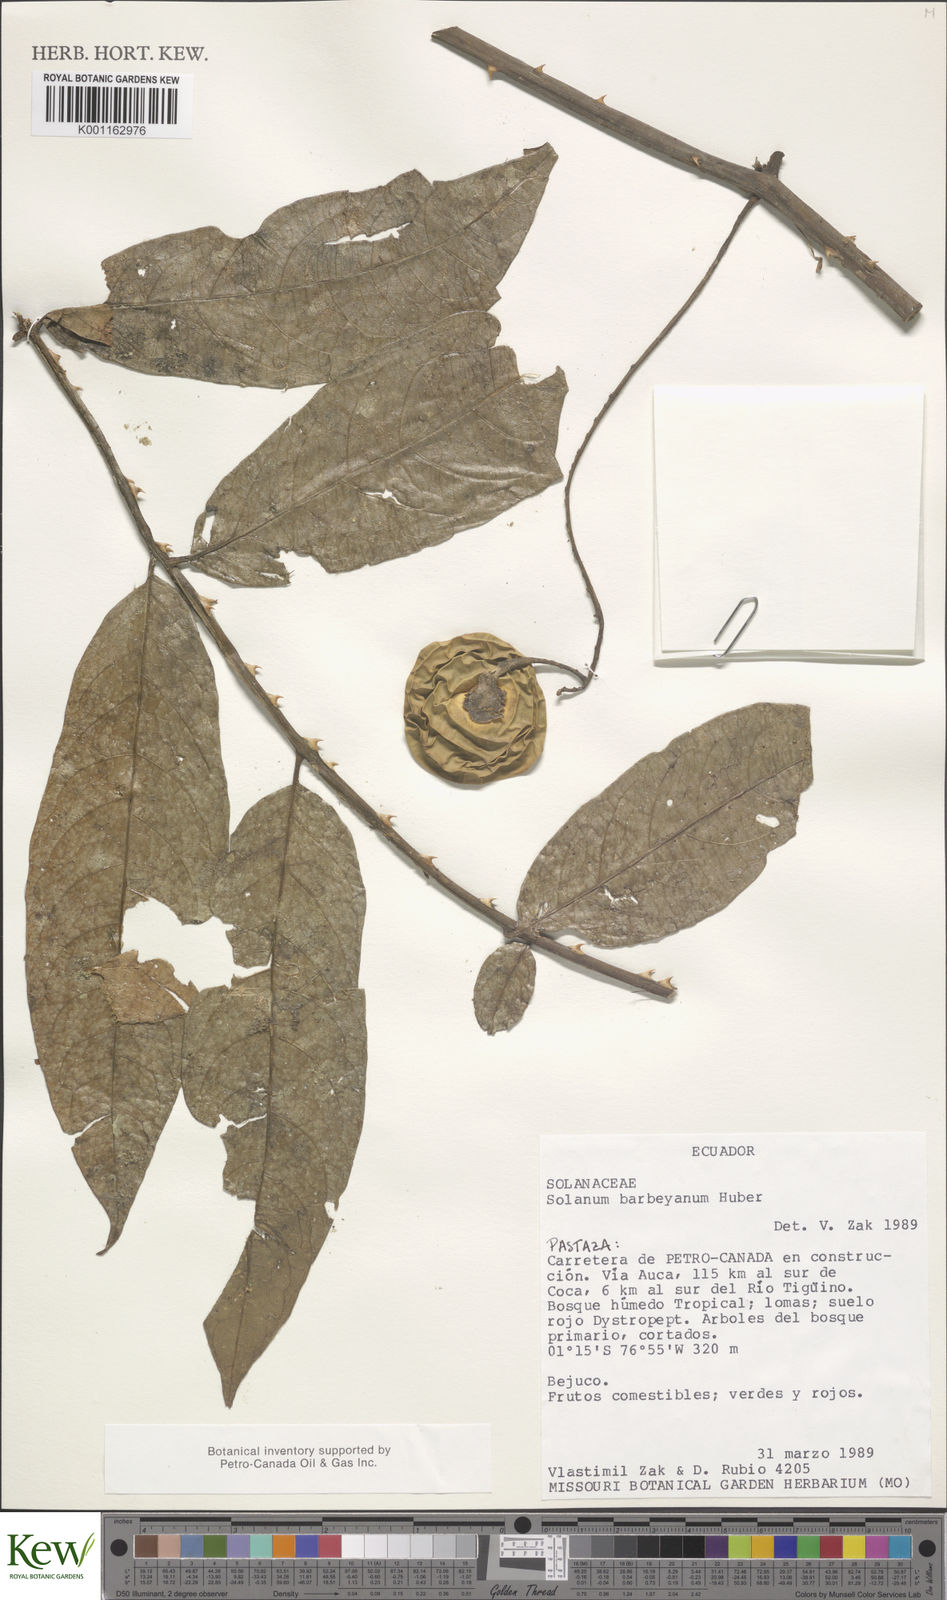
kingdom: Plantae
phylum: Tracheophyta
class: Magnoliopsida
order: Solanales
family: Solanaceae
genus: Solanum
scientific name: Solanum barbeyanum
